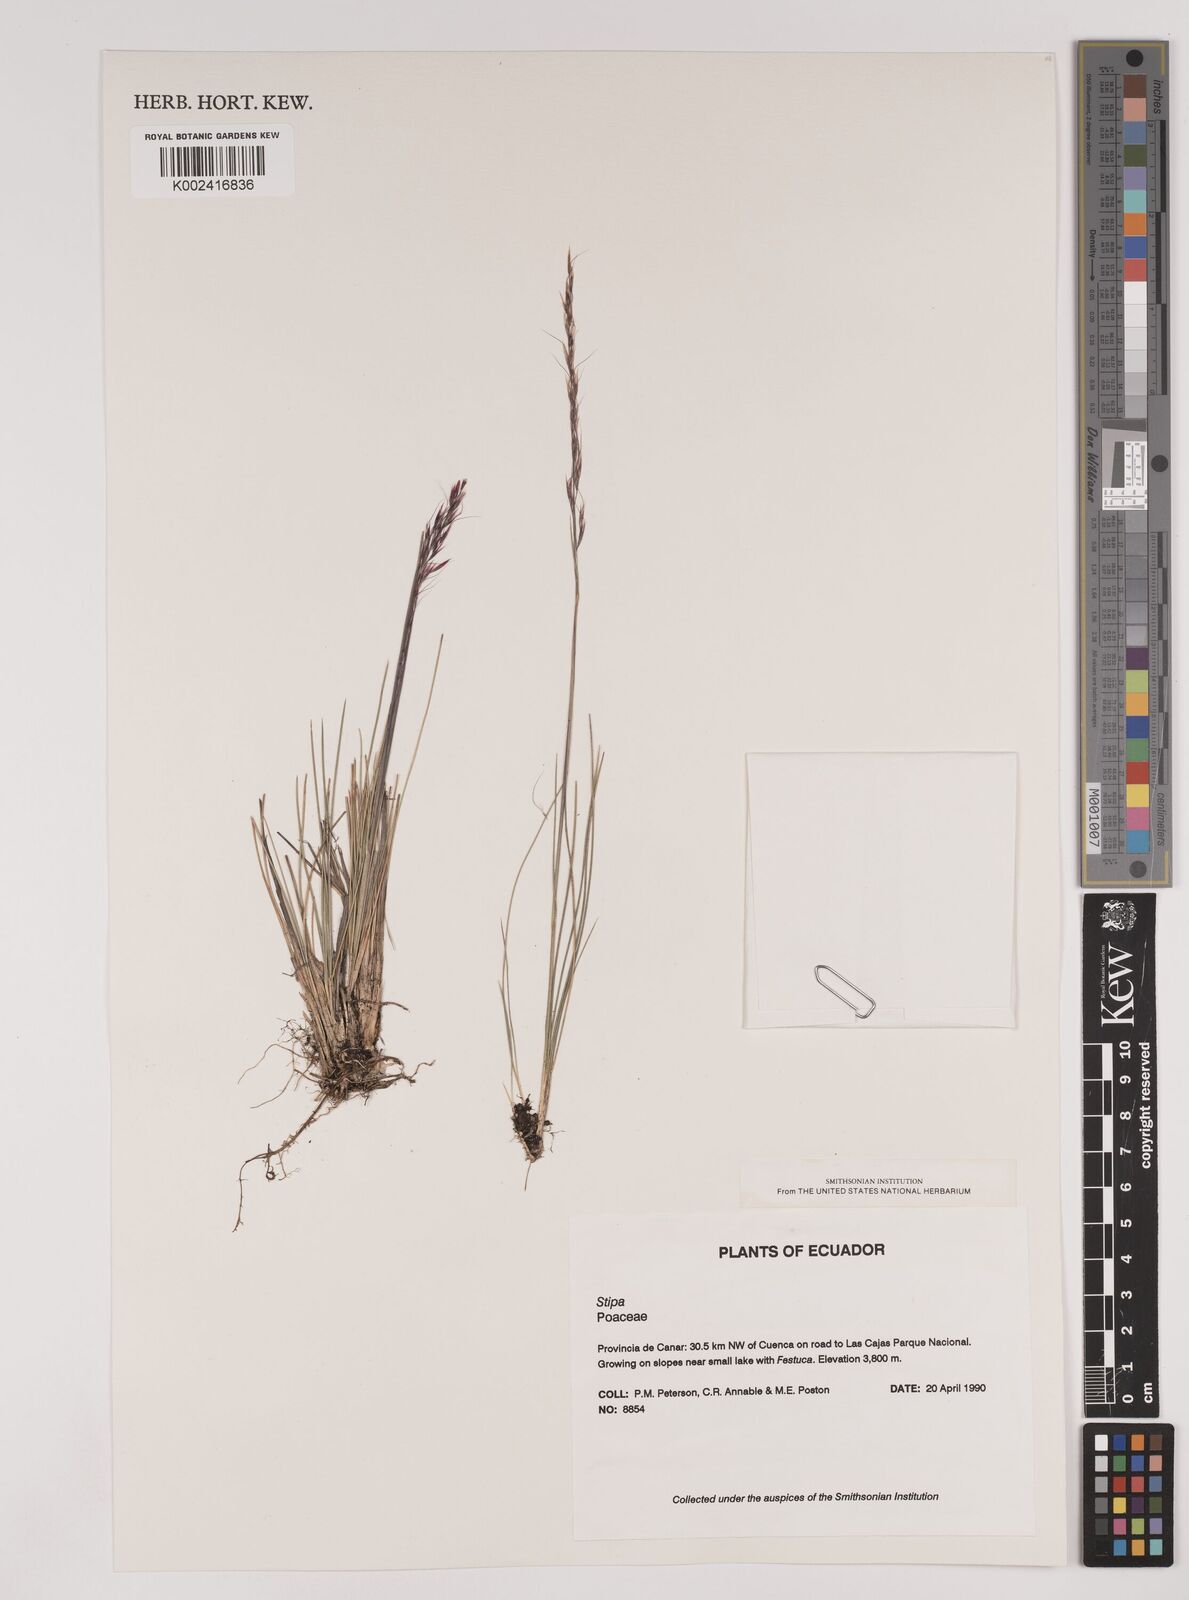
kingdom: Plantae
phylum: Tracheophyta
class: Liliopsida
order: Poales
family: Poaceae
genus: Stipa
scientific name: Stipa
